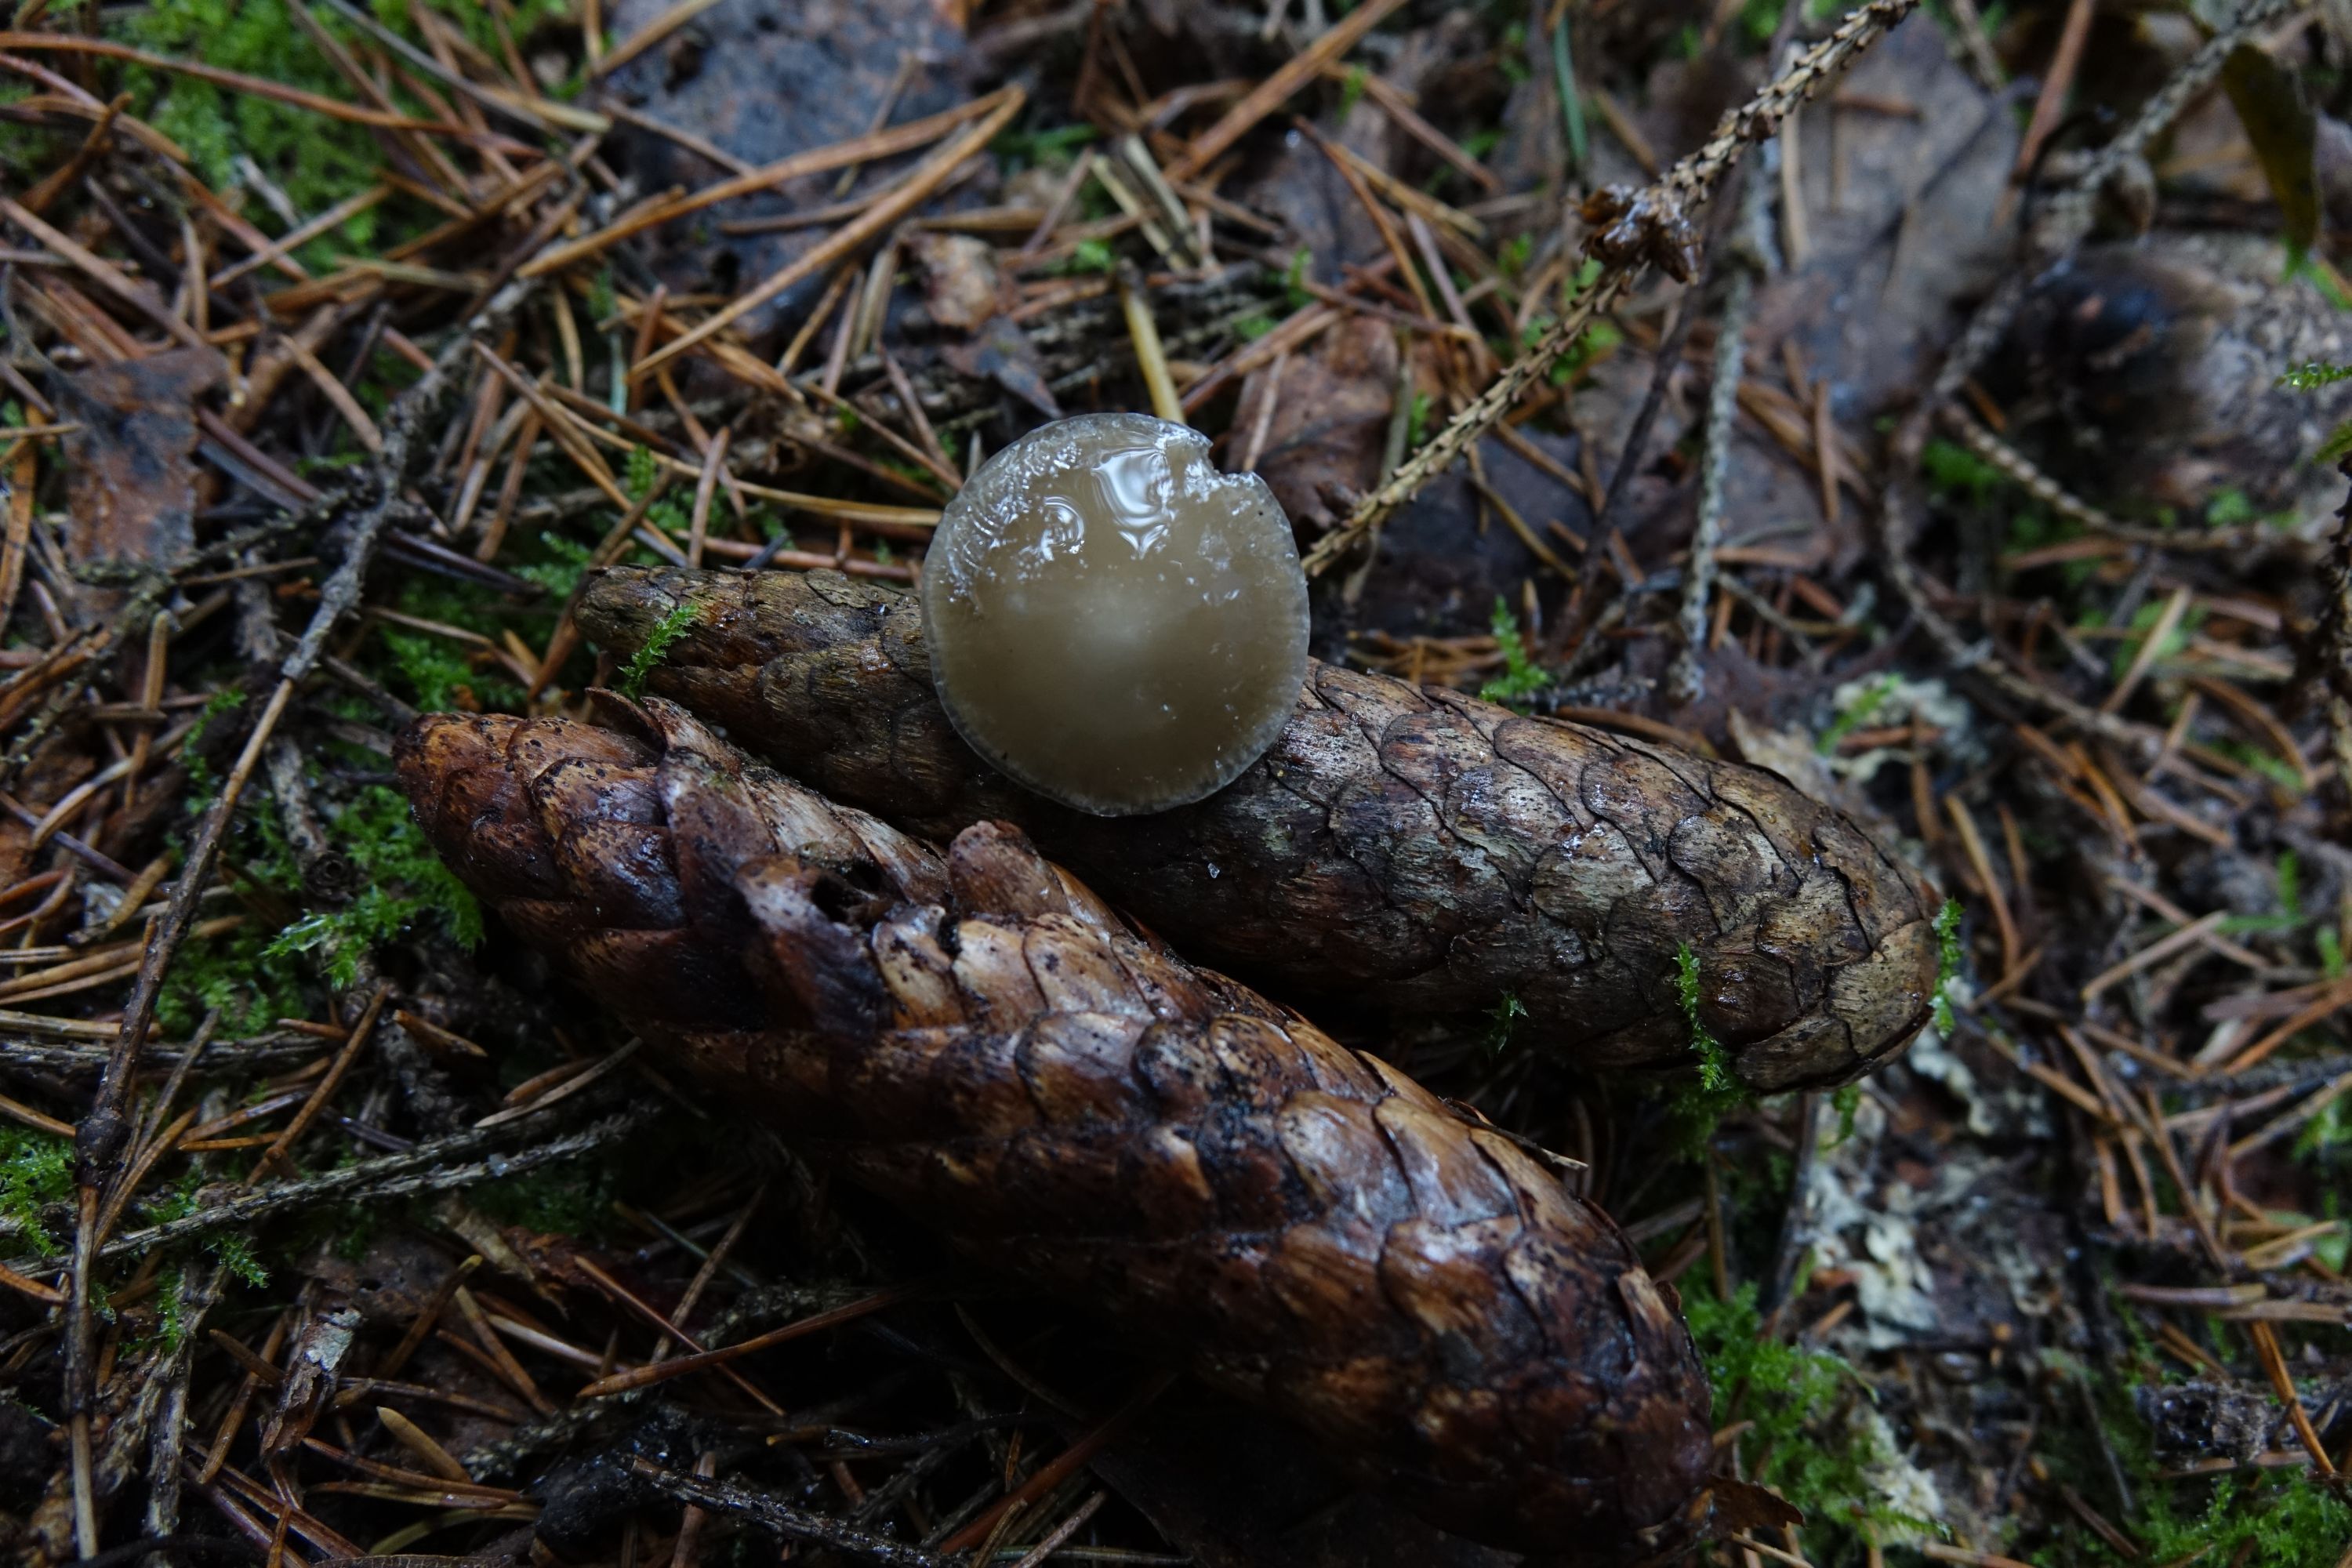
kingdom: Fungi
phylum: Basidiomycota
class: Agaricomycetes
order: Agaricales
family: Physalacriaceae
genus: Strobilurus
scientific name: Strobilurus esculentus
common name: Sprucecone cap
